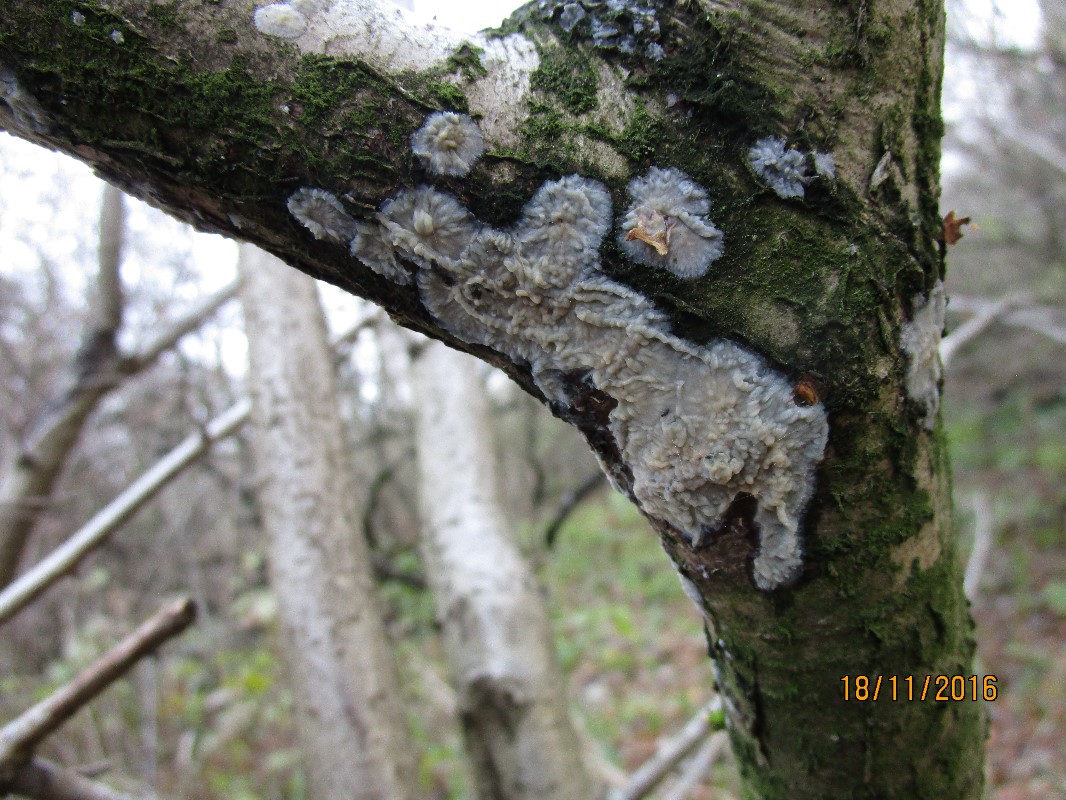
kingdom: Fungi
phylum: Basidiomycota
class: Agaricomycetes
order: Agaricales
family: Radulomycetaceae
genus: Radulomyces
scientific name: Radulomyces confluens
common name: glat naftalinskind
